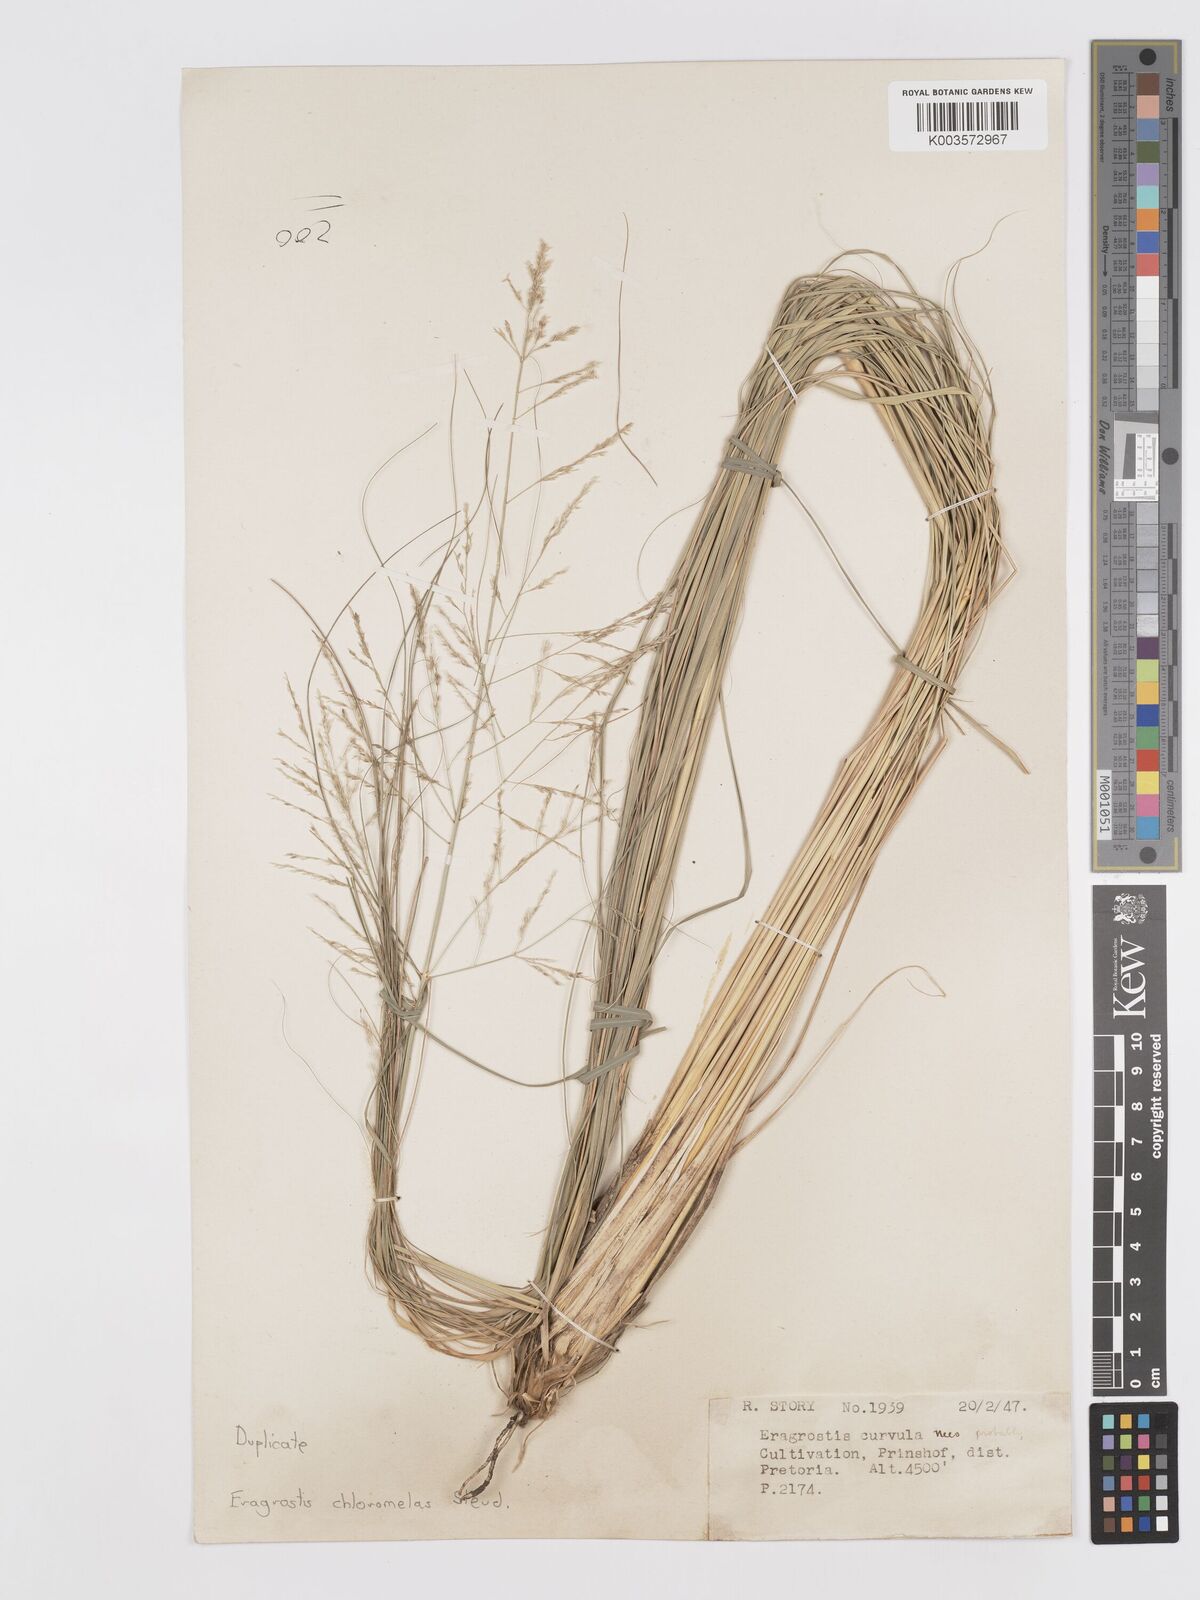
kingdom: Plantae
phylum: Tracheophyta
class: Liliopsida
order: Poales
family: Poaceae
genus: Eragrostis
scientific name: Eragrostis curvula
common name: African love-grass
